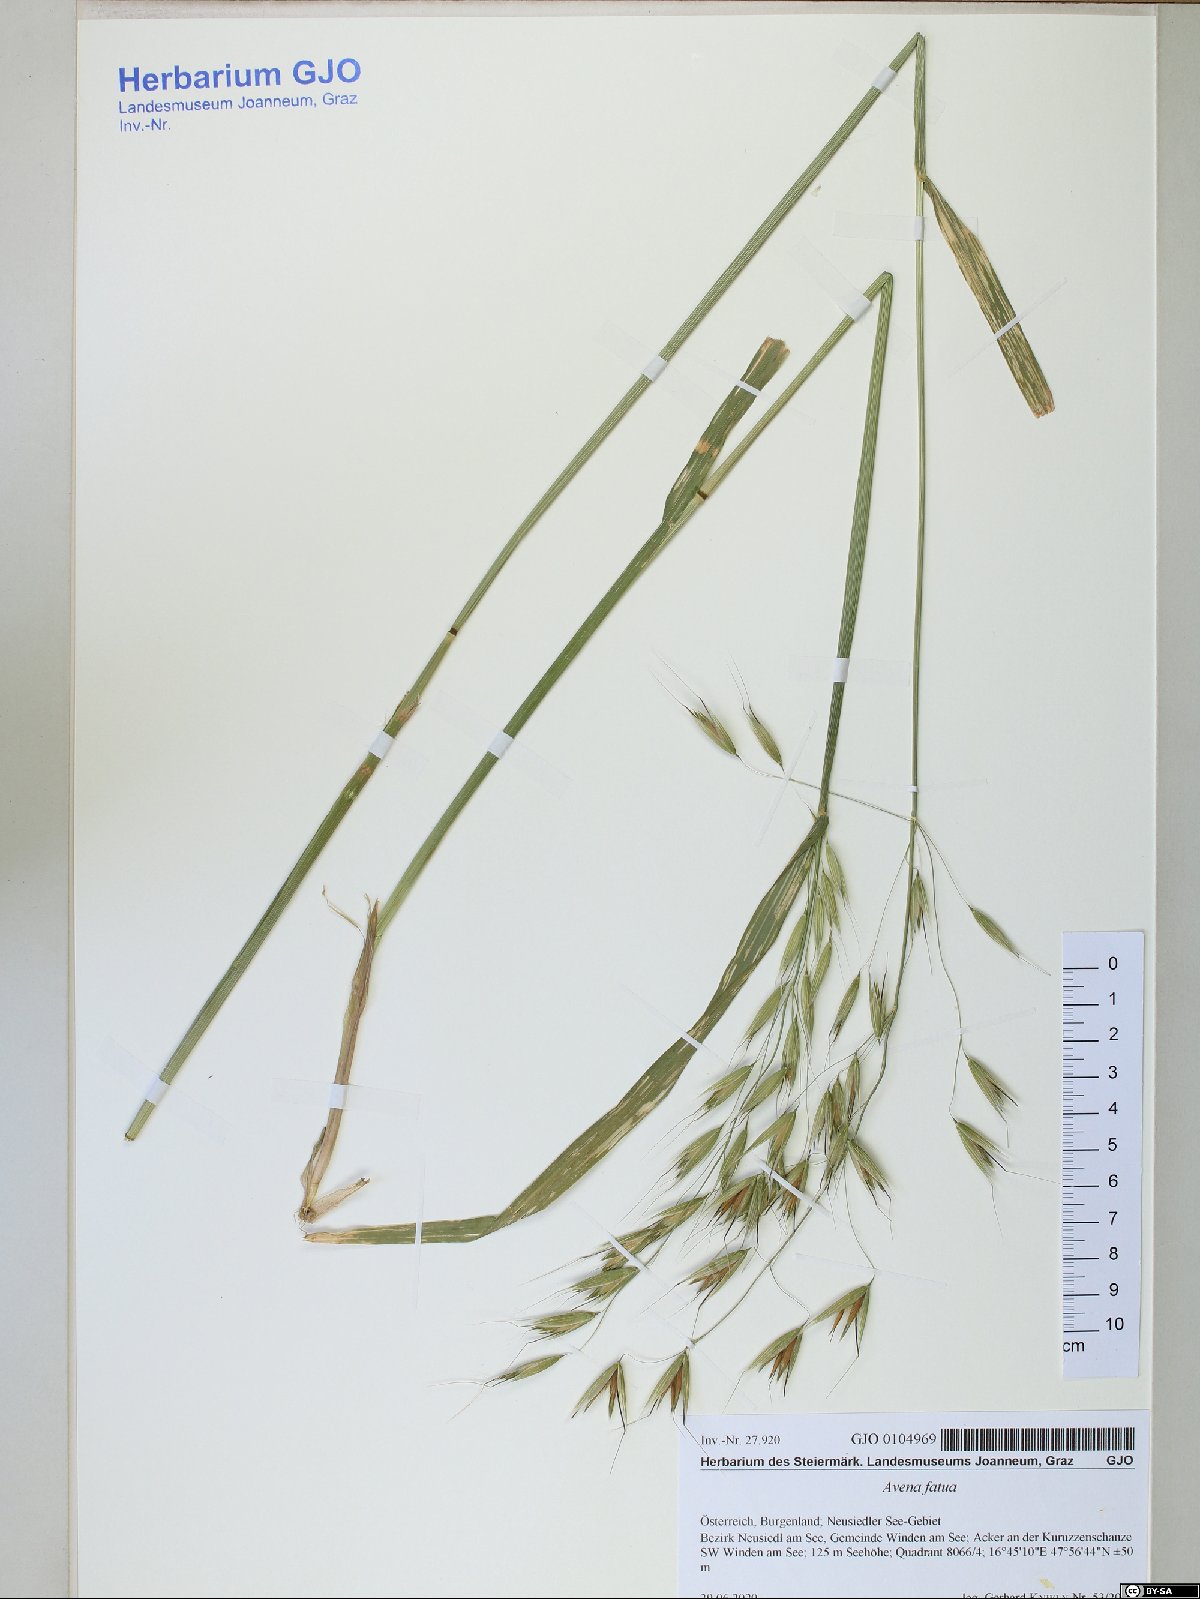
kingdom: Plantae
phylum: Tracheophyta
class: Liliopsida
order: Poales
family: Poaceae
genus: Avena
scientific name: Avena fatua
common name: Wild oat
